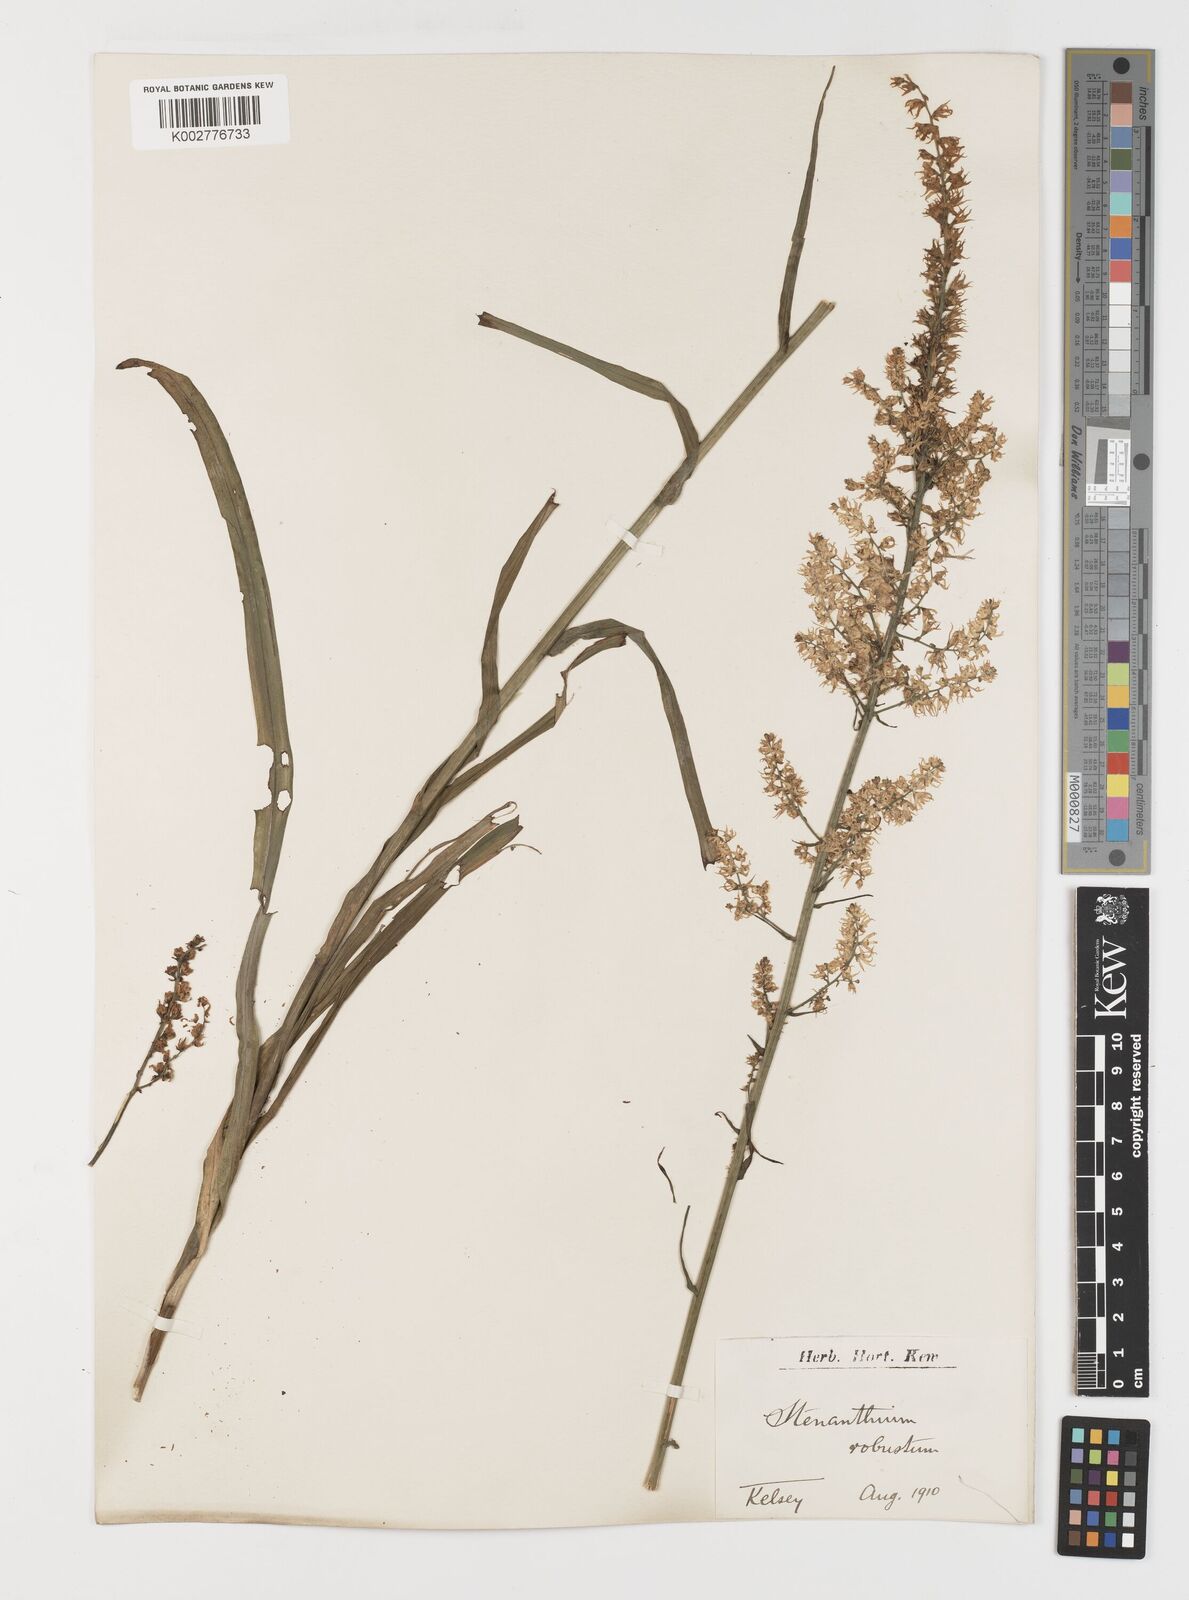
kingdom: Plantae
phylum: Tracheophyta
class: Liliopsida
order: Liliales
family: Melanthiaceae
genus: Stenanthium
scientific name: Stenanthium gramineum
